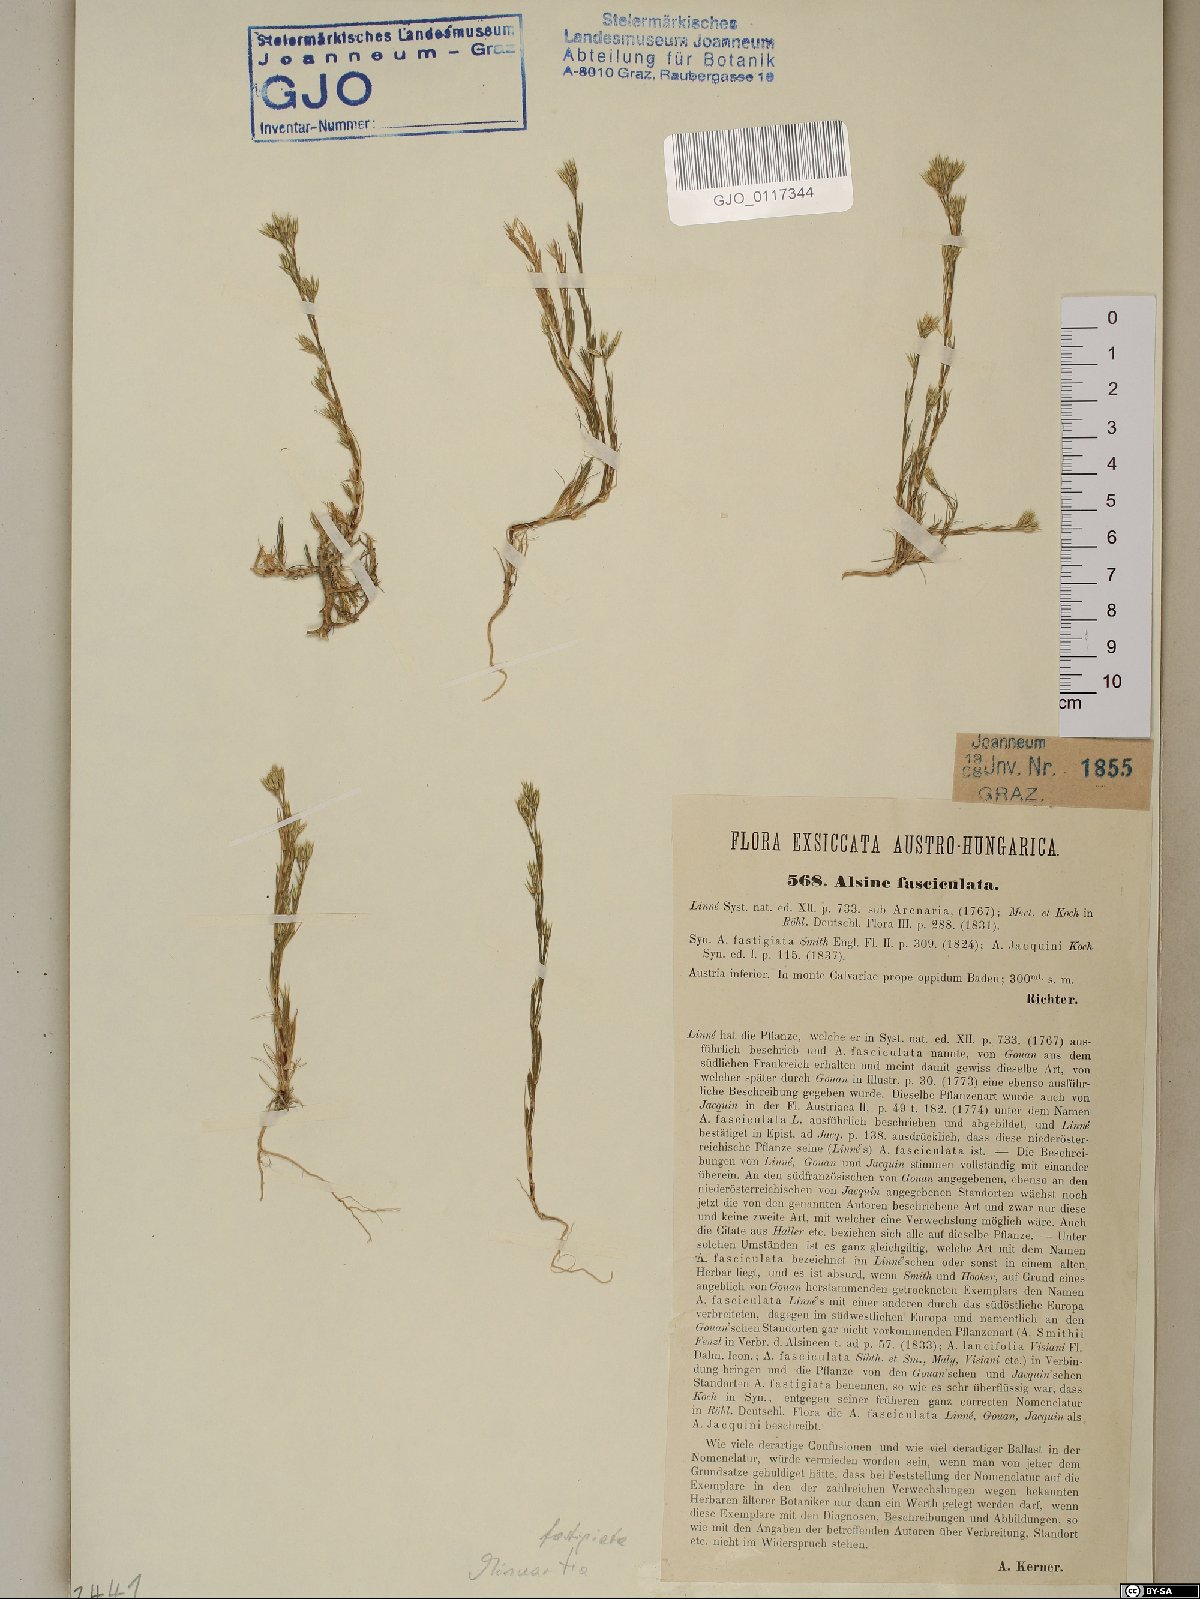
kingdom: Plantae
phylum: Tracheophyta
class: Magnoliopsida
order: Caryophyllales
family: Caryophyllaceae
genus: Minuartia
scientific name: Minuartia mucronata
